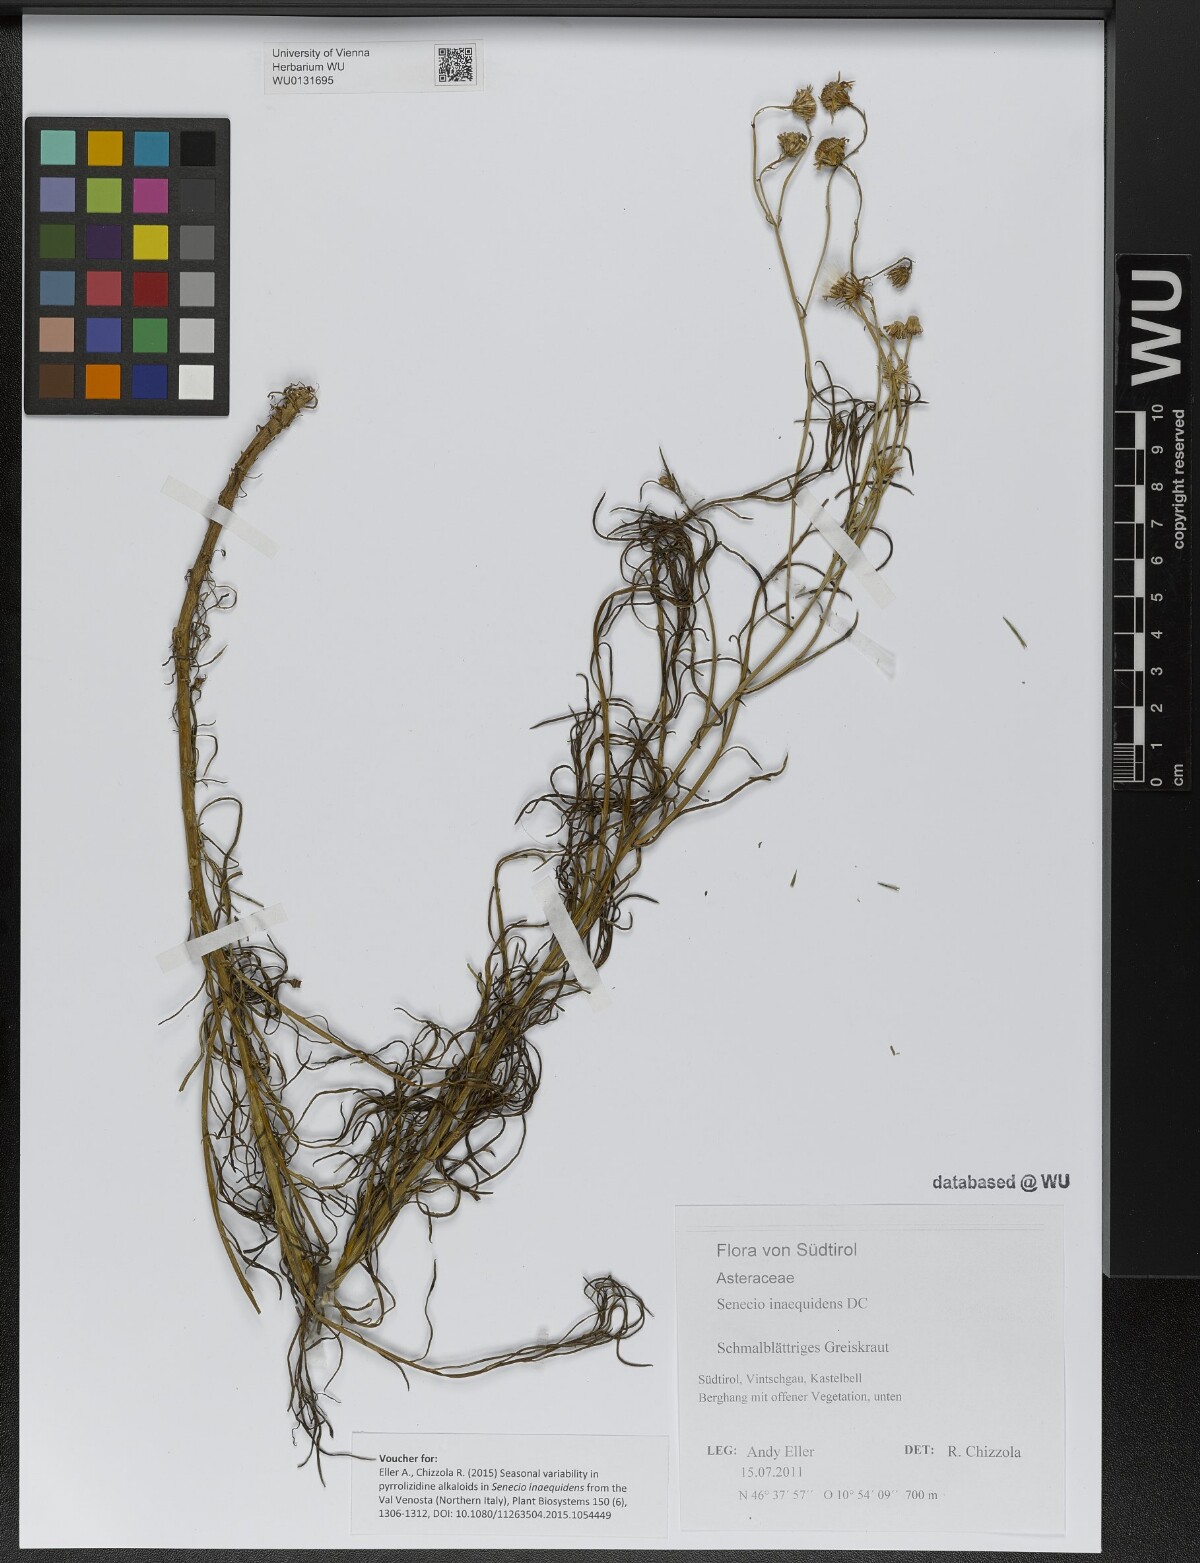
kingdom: Plantae
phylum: Tracheophyta
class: Magnoliopsida
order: Asterales
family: Asteraceae
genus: Senecio
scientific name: Senecio inaequidens
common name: Narrow-leaved ragwort
